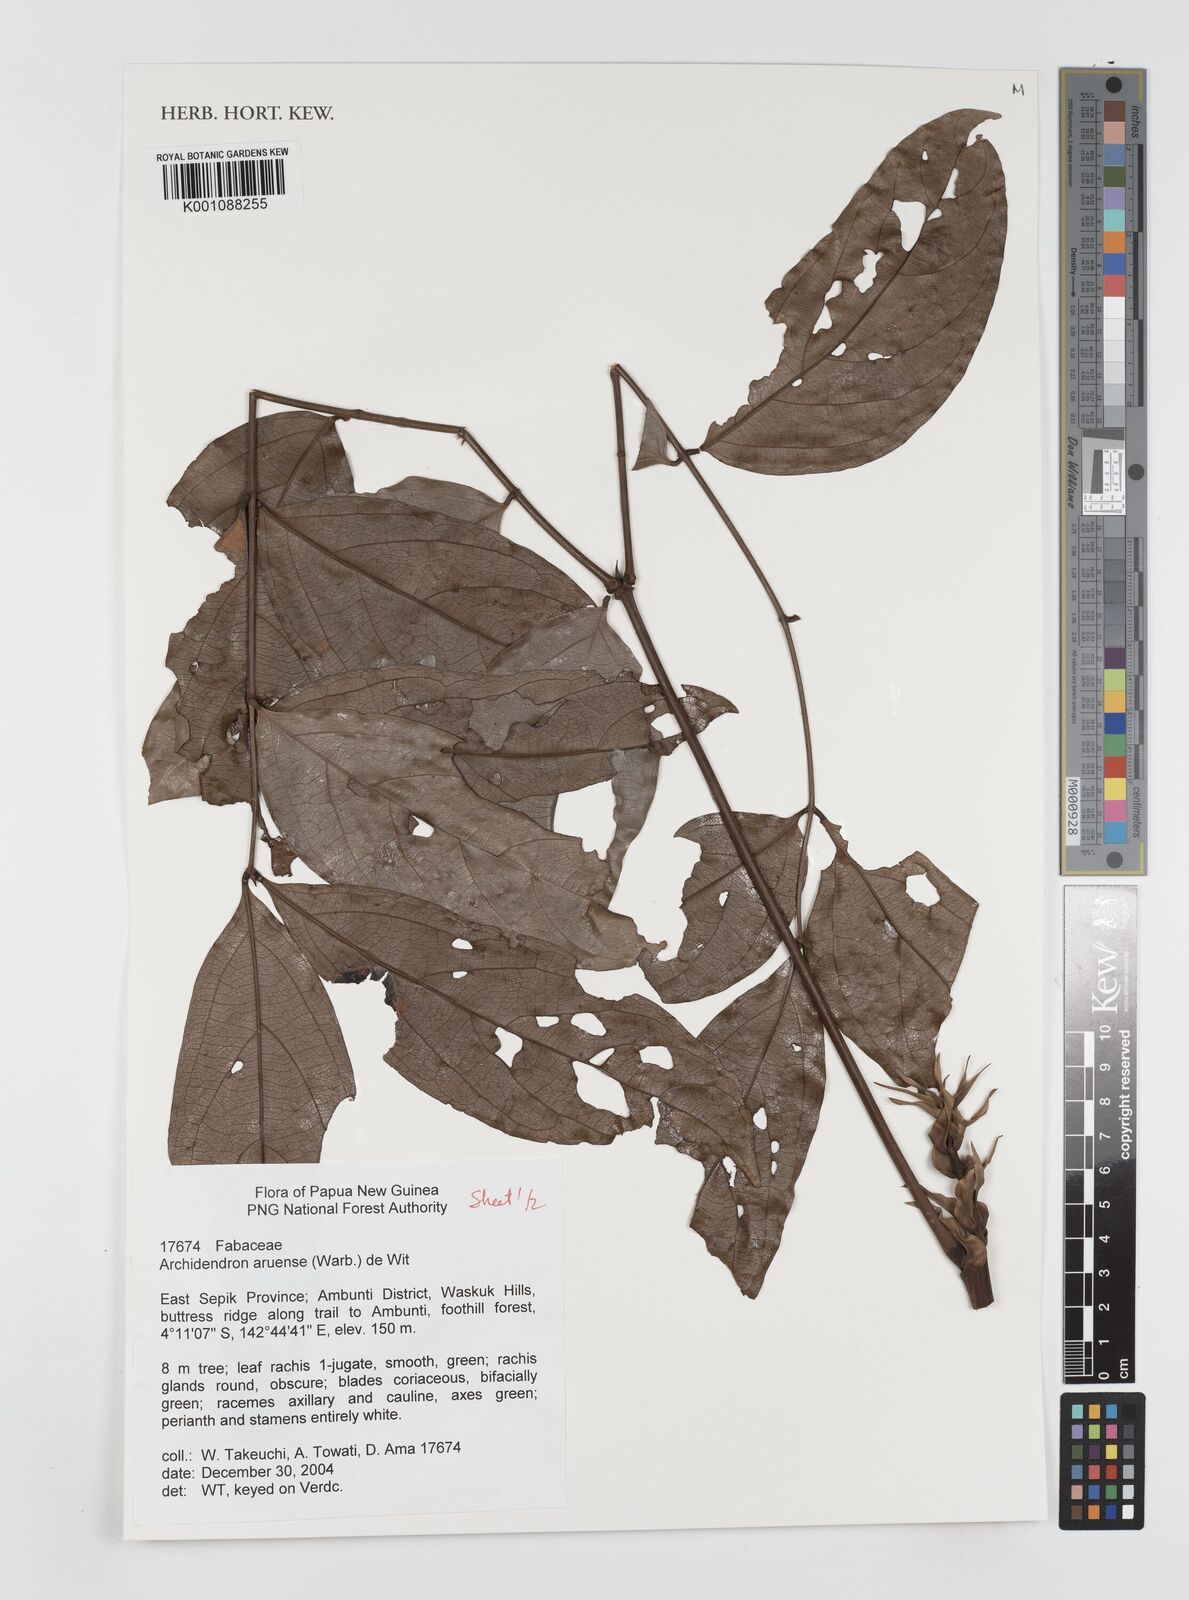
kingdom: Plantae
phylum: Tracheophyta
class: Magnoliopsida
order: Fabales
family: Fabaceae
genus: Archidendron
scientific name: Archidendron aruense
